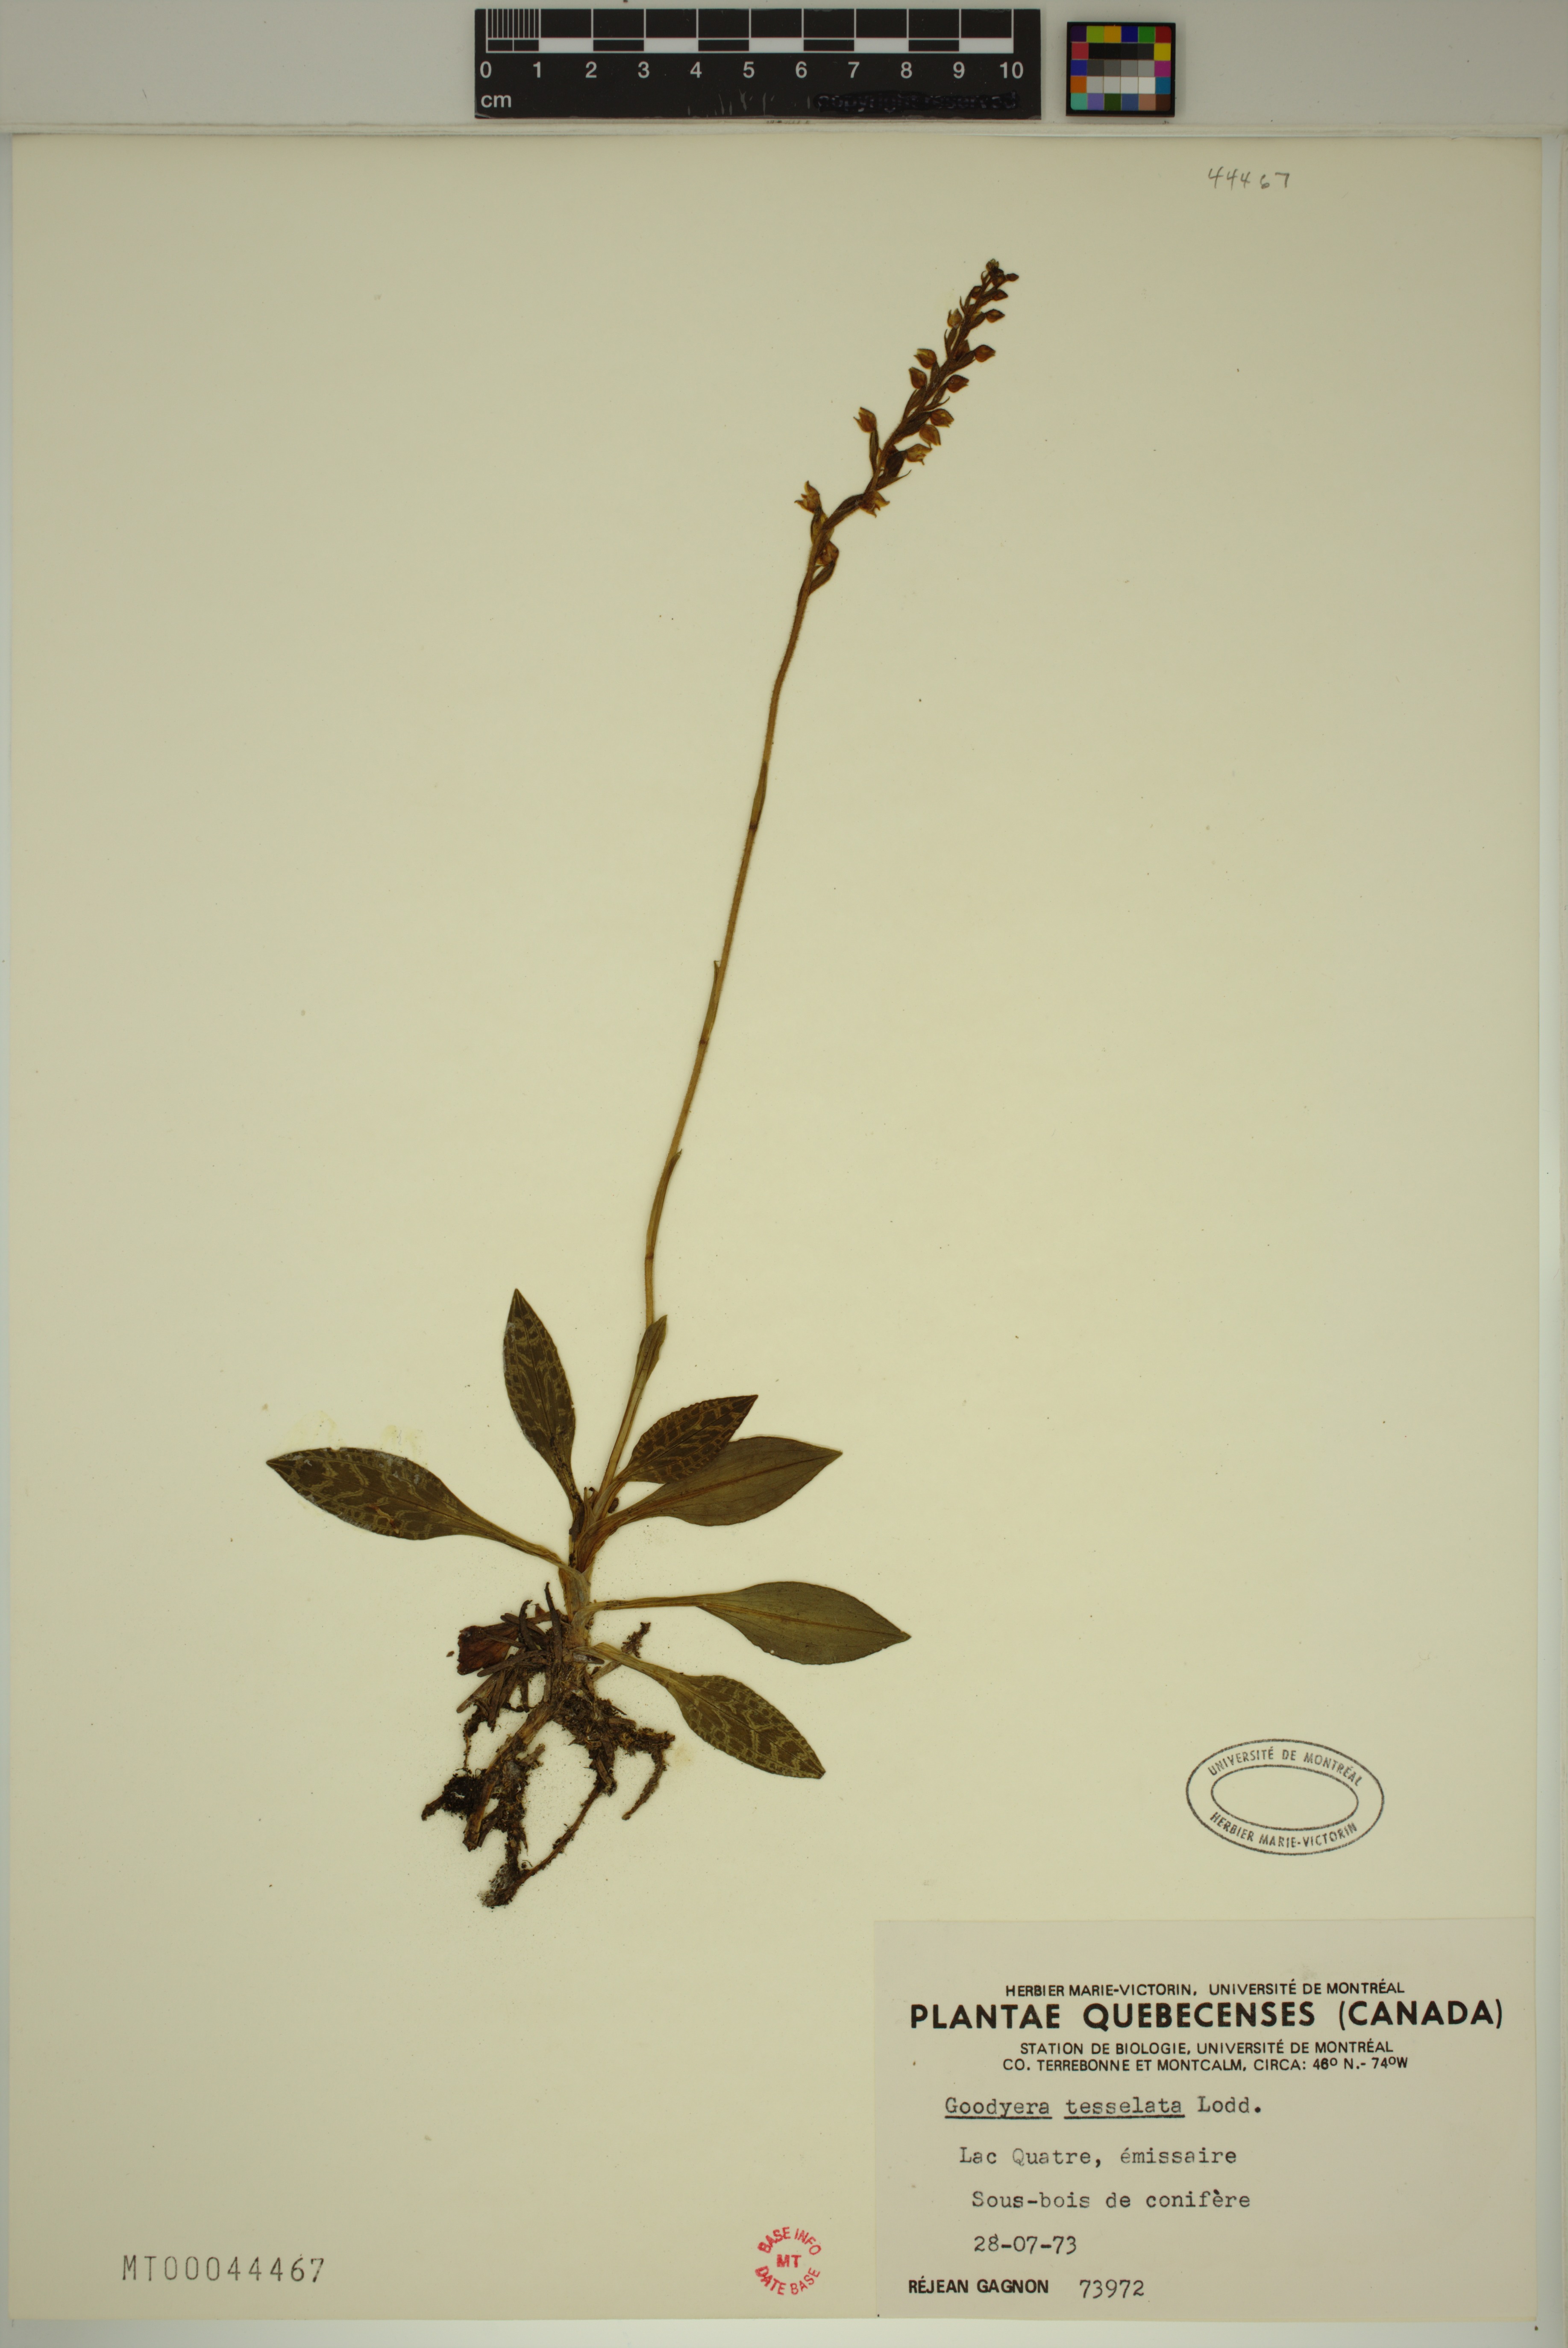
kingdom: Plantae
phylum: Tracheophyta
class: Liliopsida
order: Asparagales
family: Orchidaceae
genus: Goodyera
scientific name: Goodyera tesselata
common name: Checkered rattlesnake-plantain
